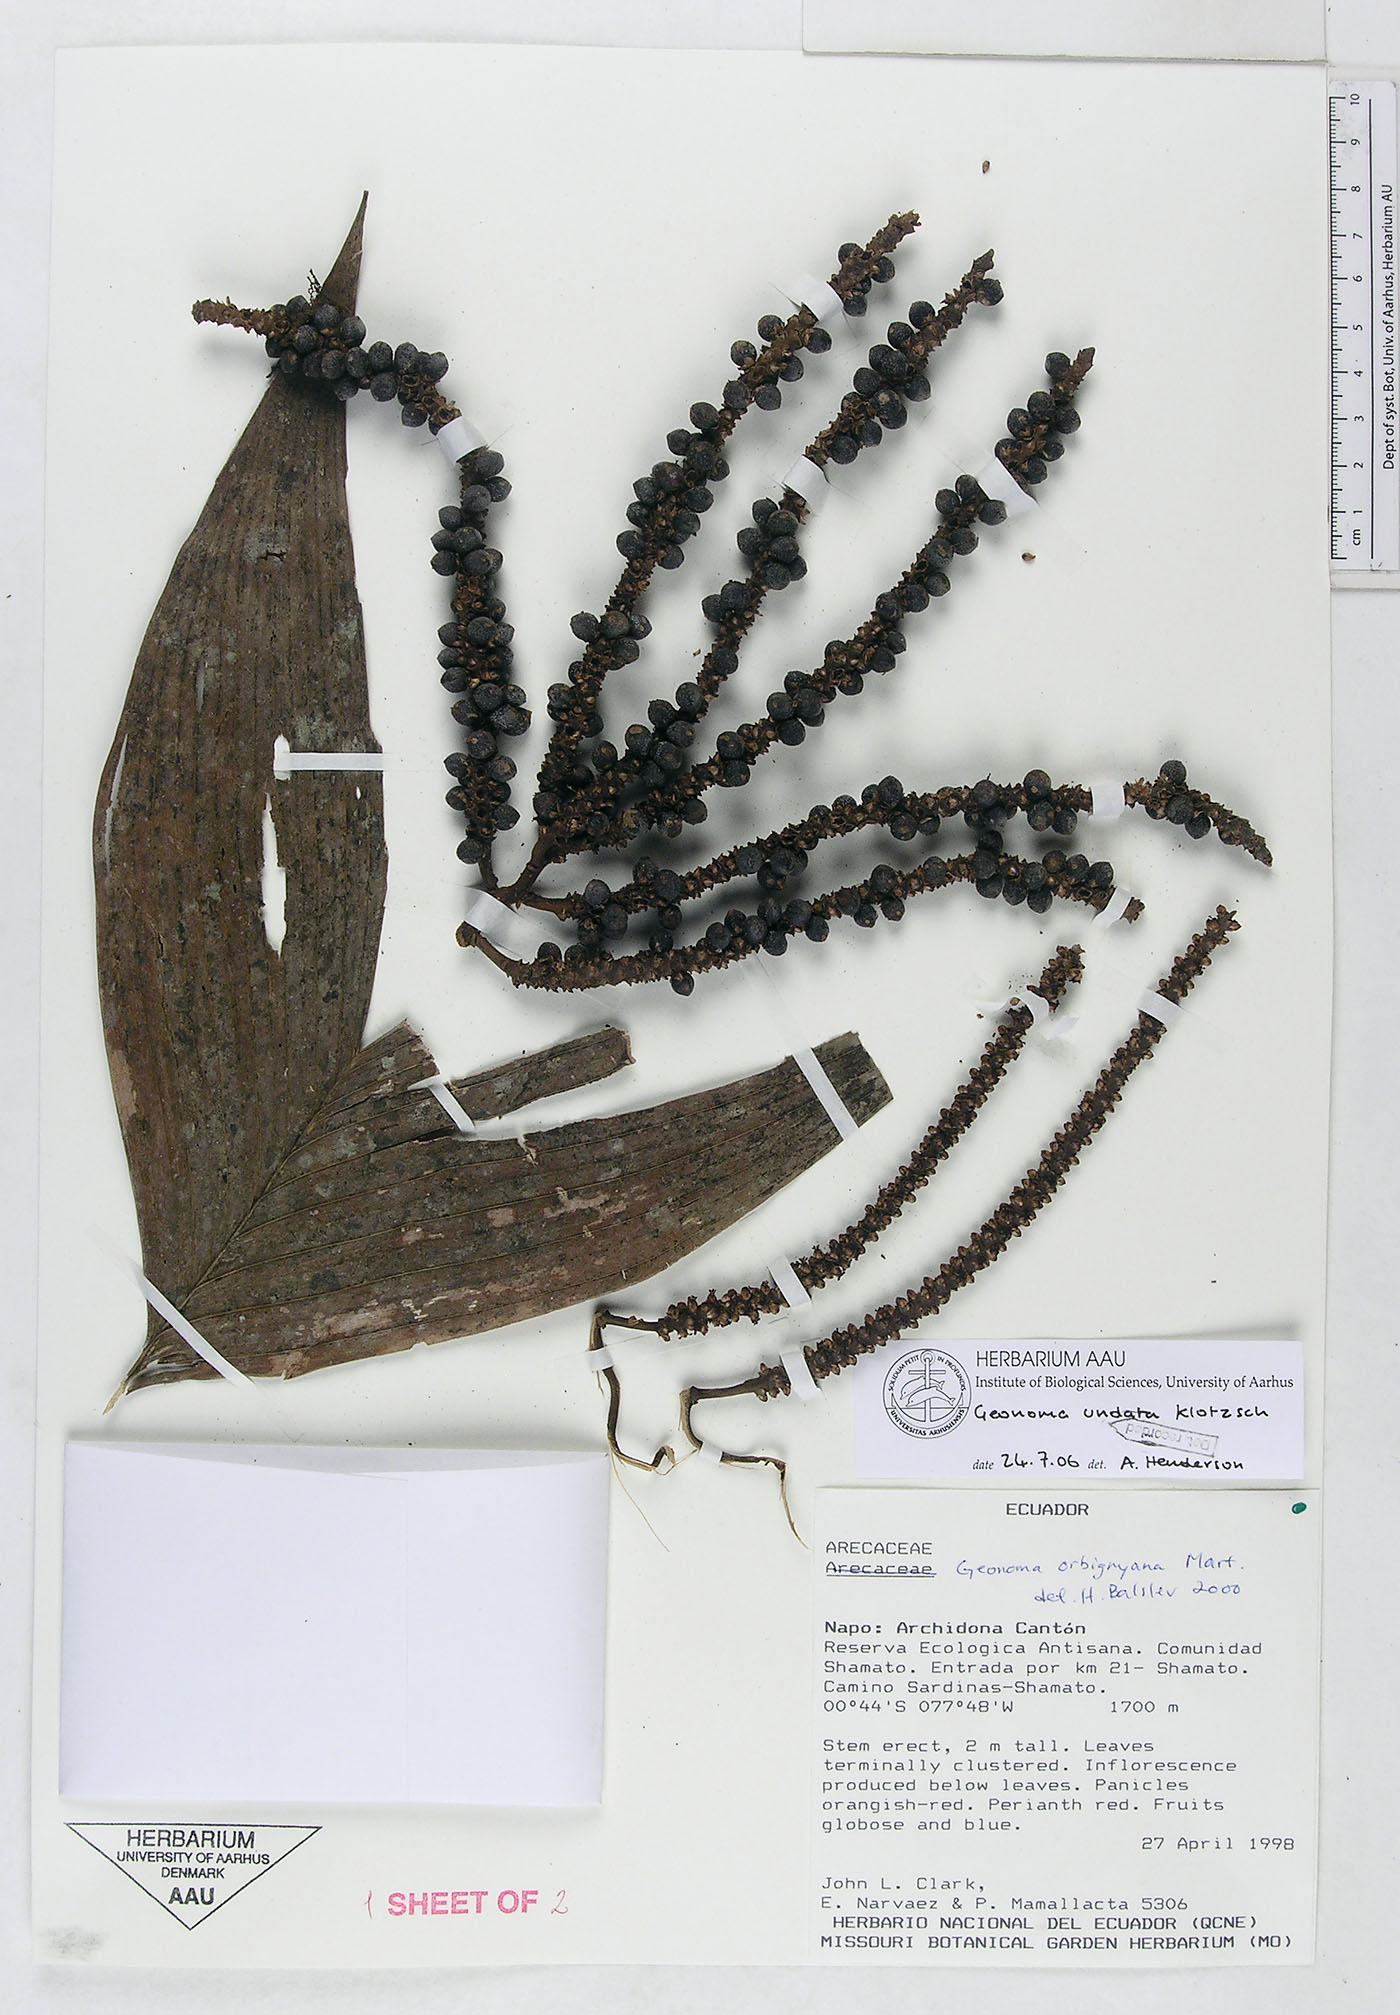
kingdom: Plantae
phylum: Tracheophyta
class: Liliopsida
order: Arecales
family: Arecaceae
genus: Geonoma
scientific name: Geonoma undata
